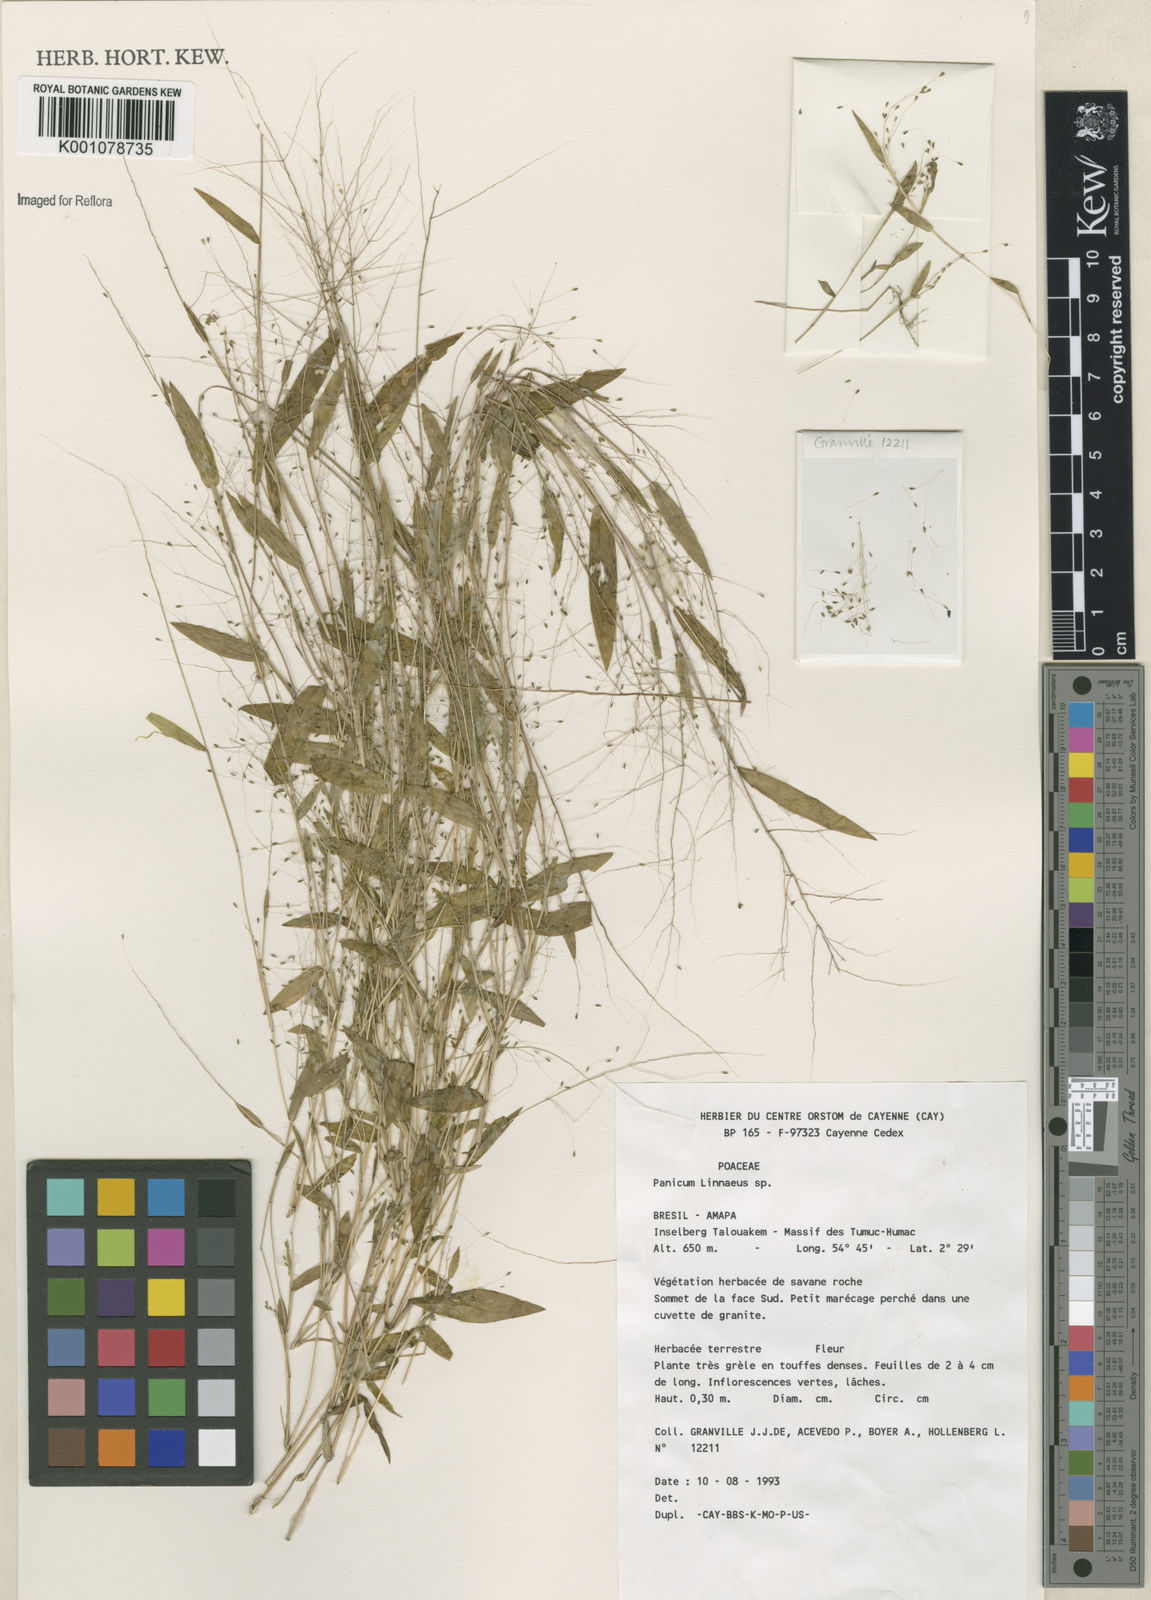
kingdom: Plantae
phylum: Tracheophyta
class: Liliopsida
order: Poales
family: Poaceae
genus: Panicum
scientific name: Panicum
